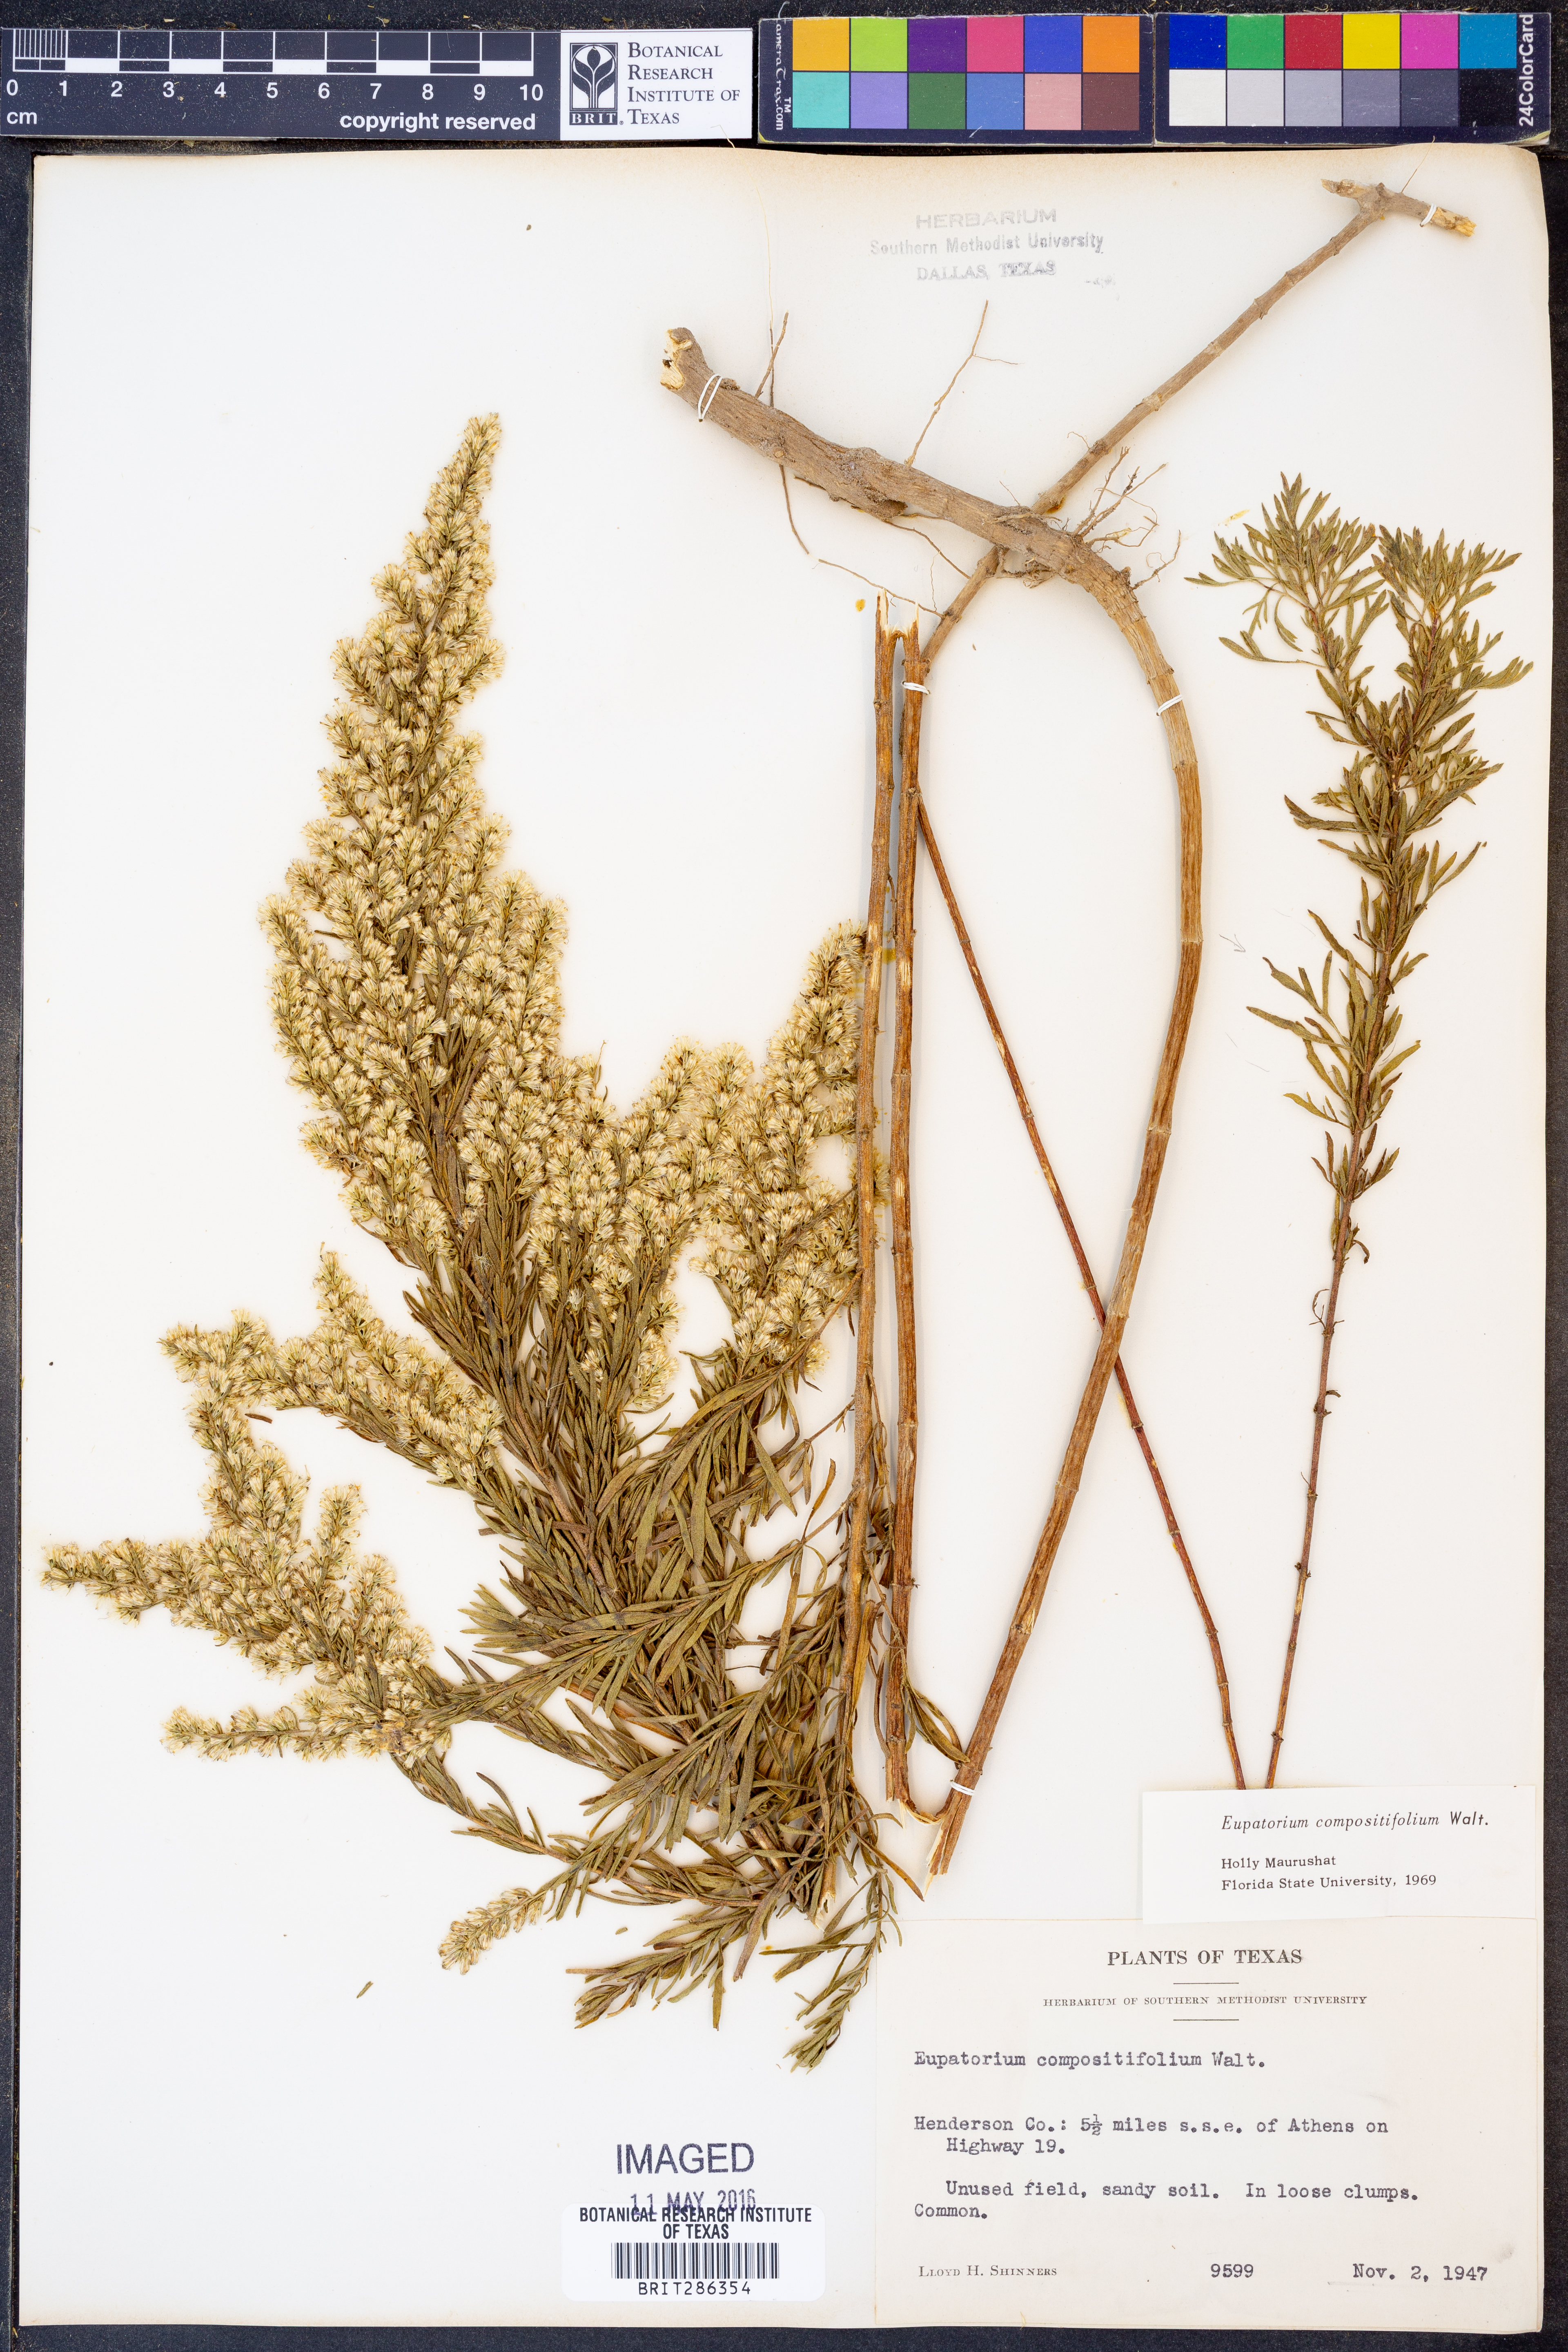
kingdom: Plantae
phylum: Tracheophyta
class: Magnoliopsida
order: Asterales
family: Asteraceae
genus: Eupatorium
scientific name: Eupatorium compositifolium
